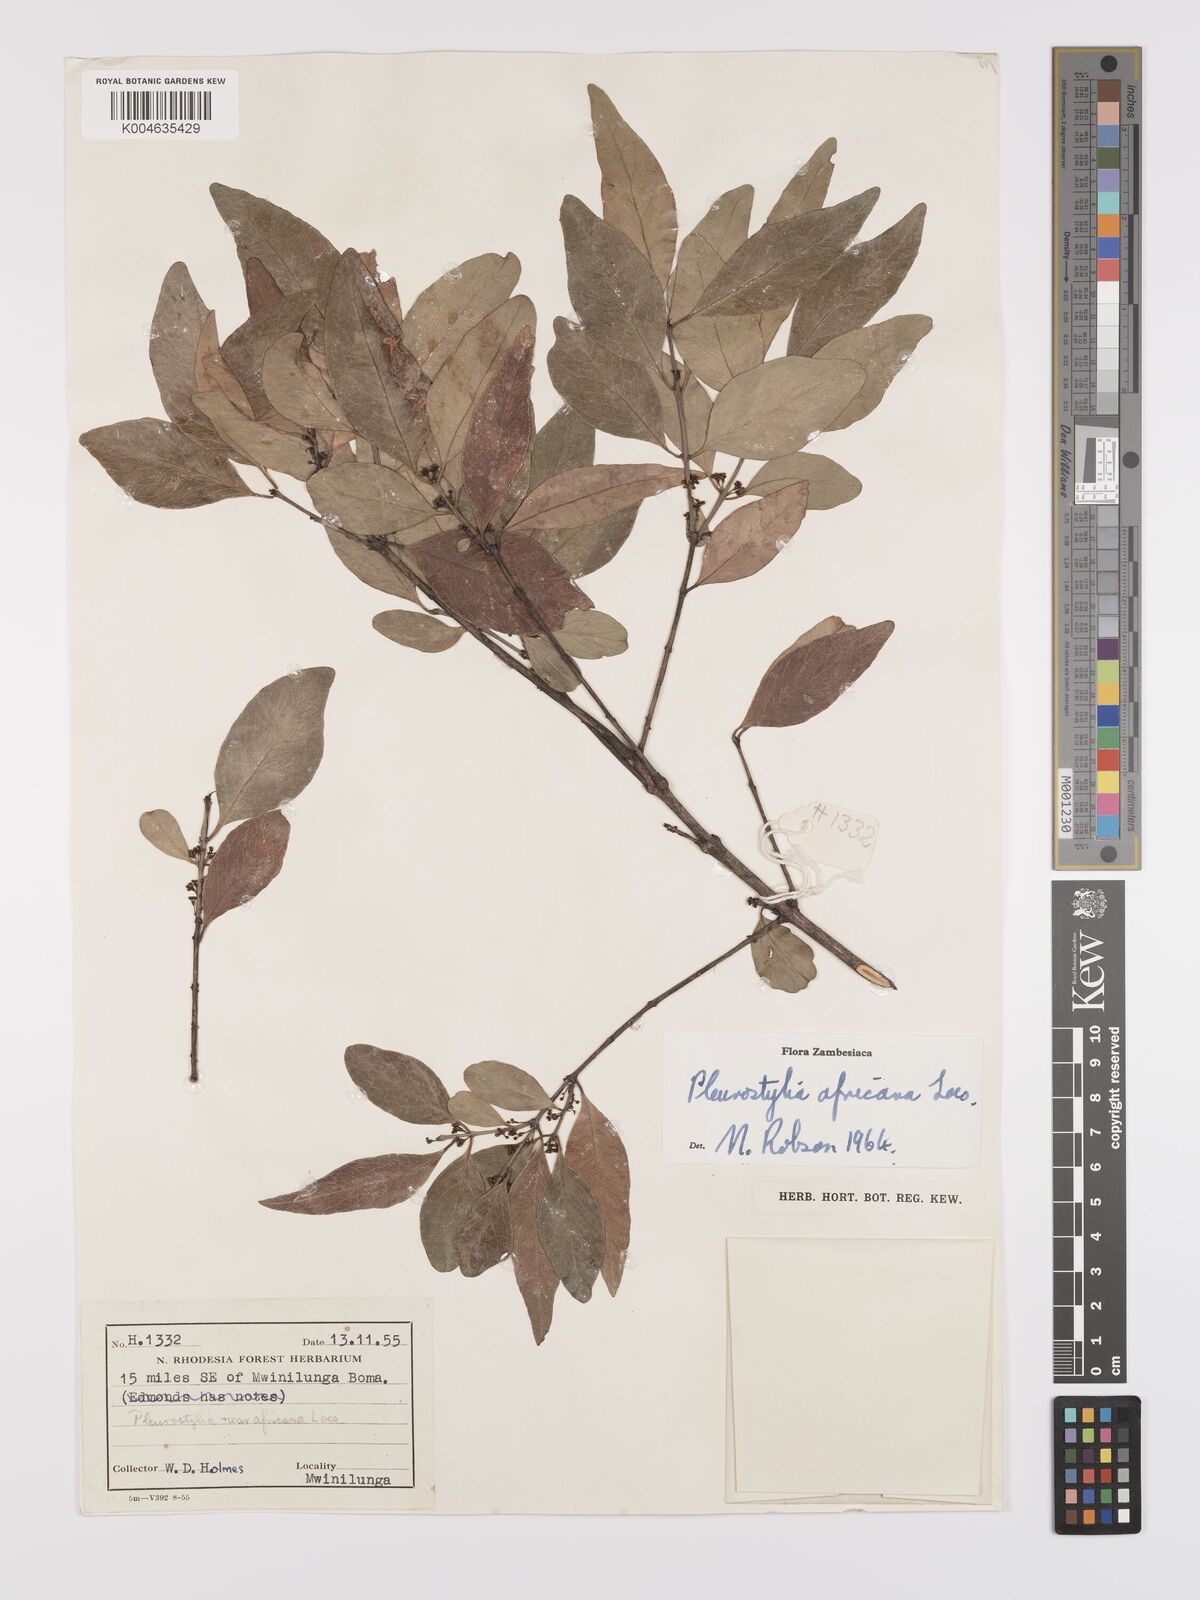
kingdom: Plantae
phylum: Tracheophyta
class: Magnoliopsida
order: Celastrales
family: Celastraceae
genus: Pleurostylia
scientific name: Pleurostylia africana
